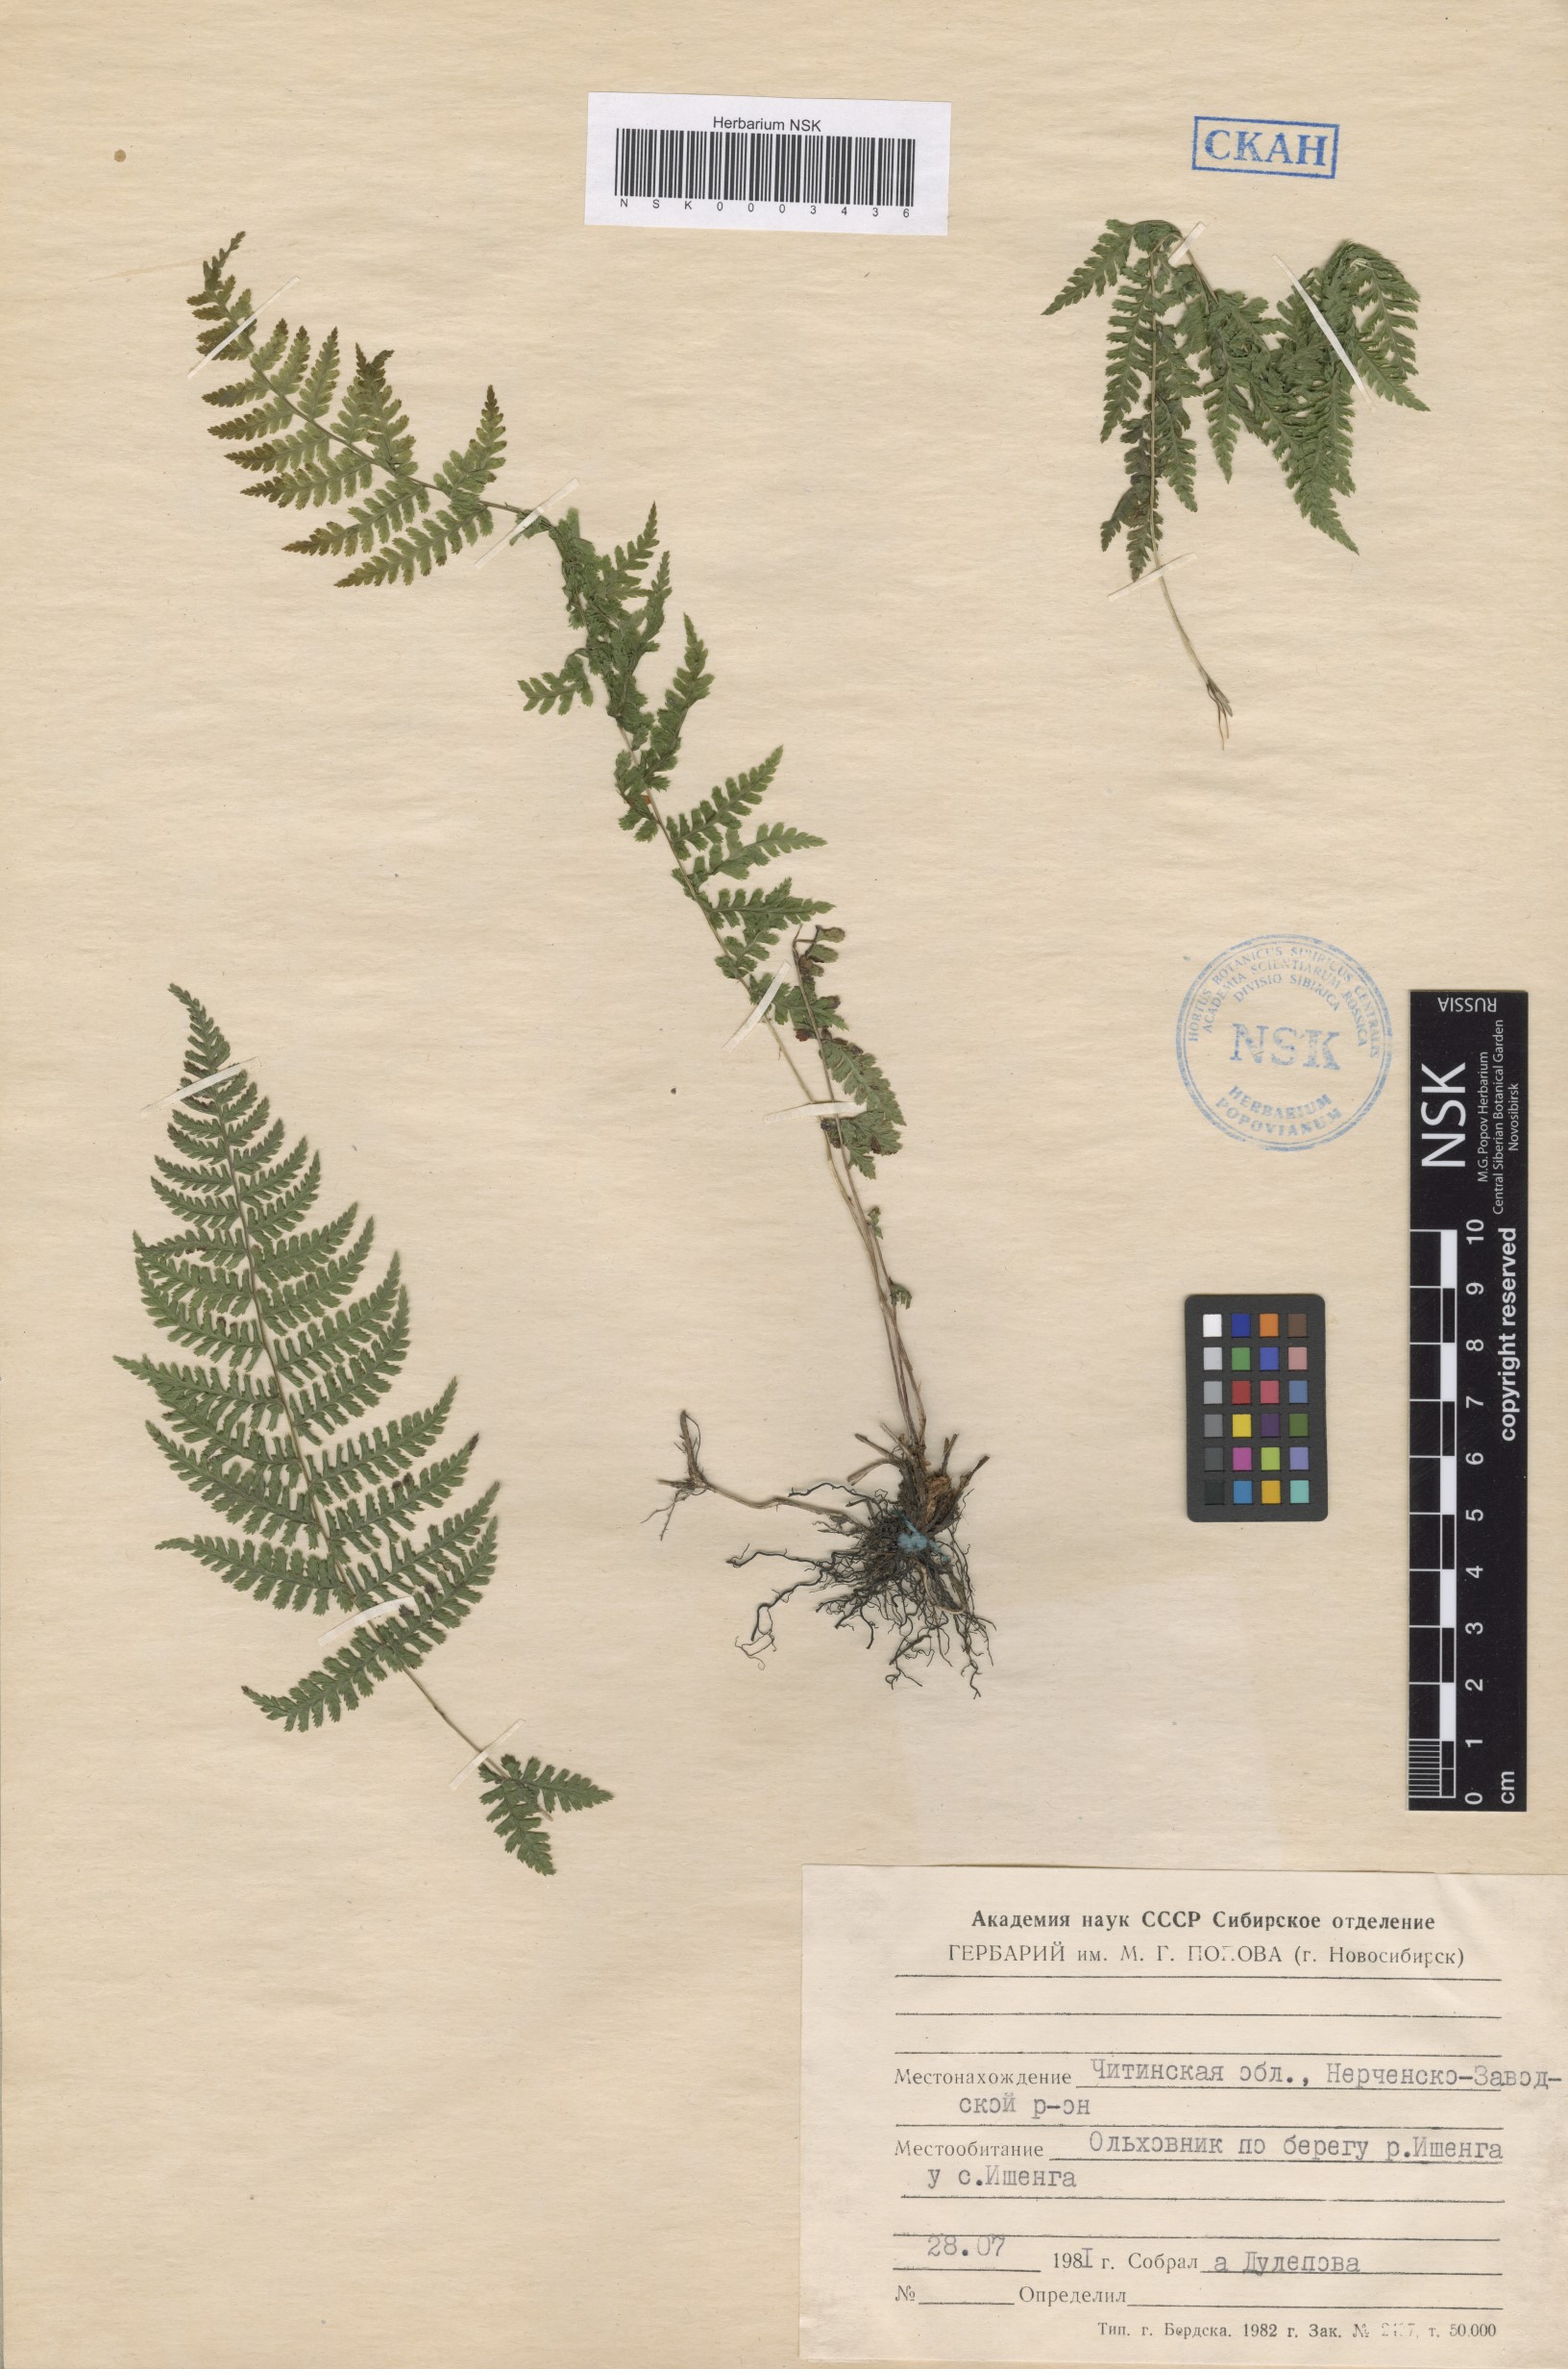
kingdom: Plantae
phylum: Tracheophyta
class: Polypodiopsida
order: Polypodiales
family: Athyriaceae
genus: Athyrium
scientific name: Athyrium filix-femina
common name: Lady fern
